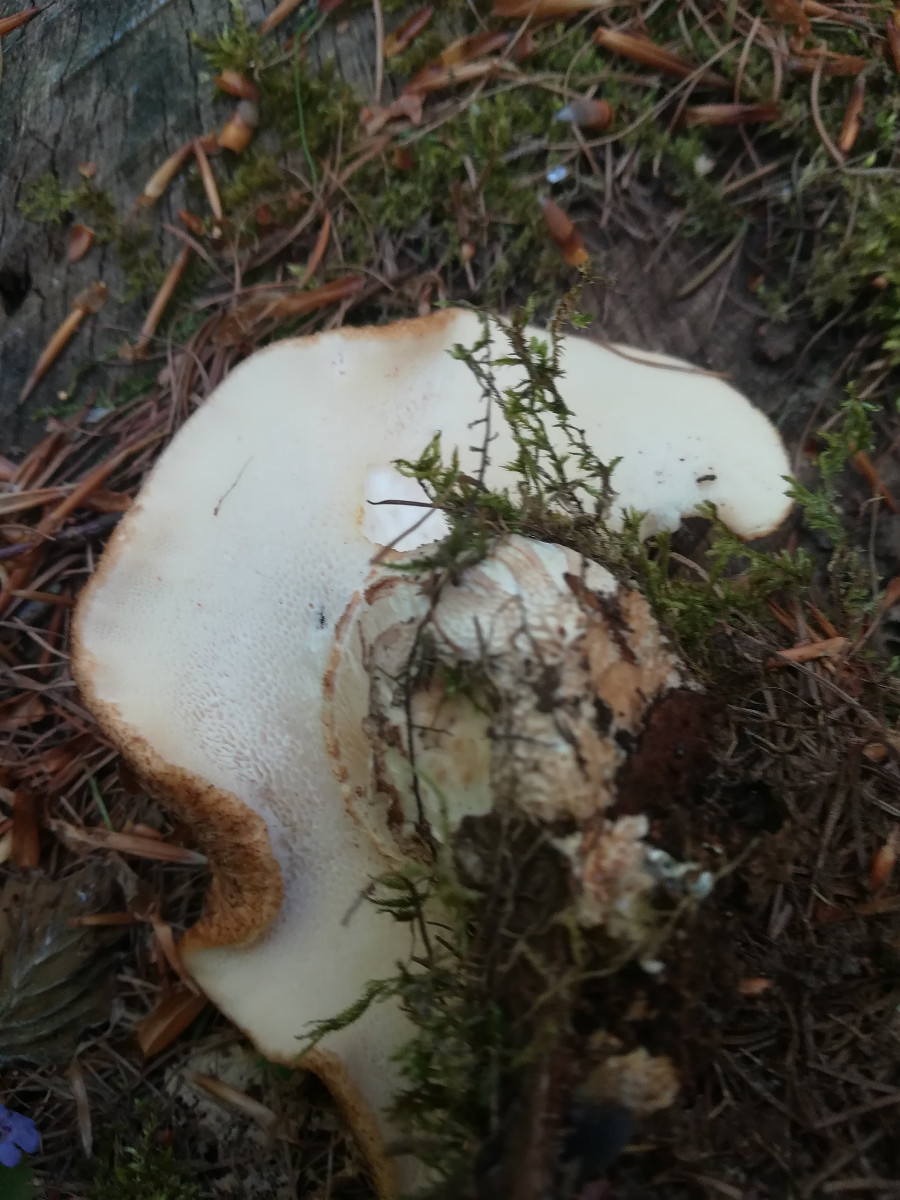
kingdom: Fungi
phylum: Basidiomycota
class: Agaricomycetes
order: Polyporales
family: Polyporaceae
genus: Cerioporus
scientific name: Cerioporus squamosus
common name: skællet stilkporesvamp
